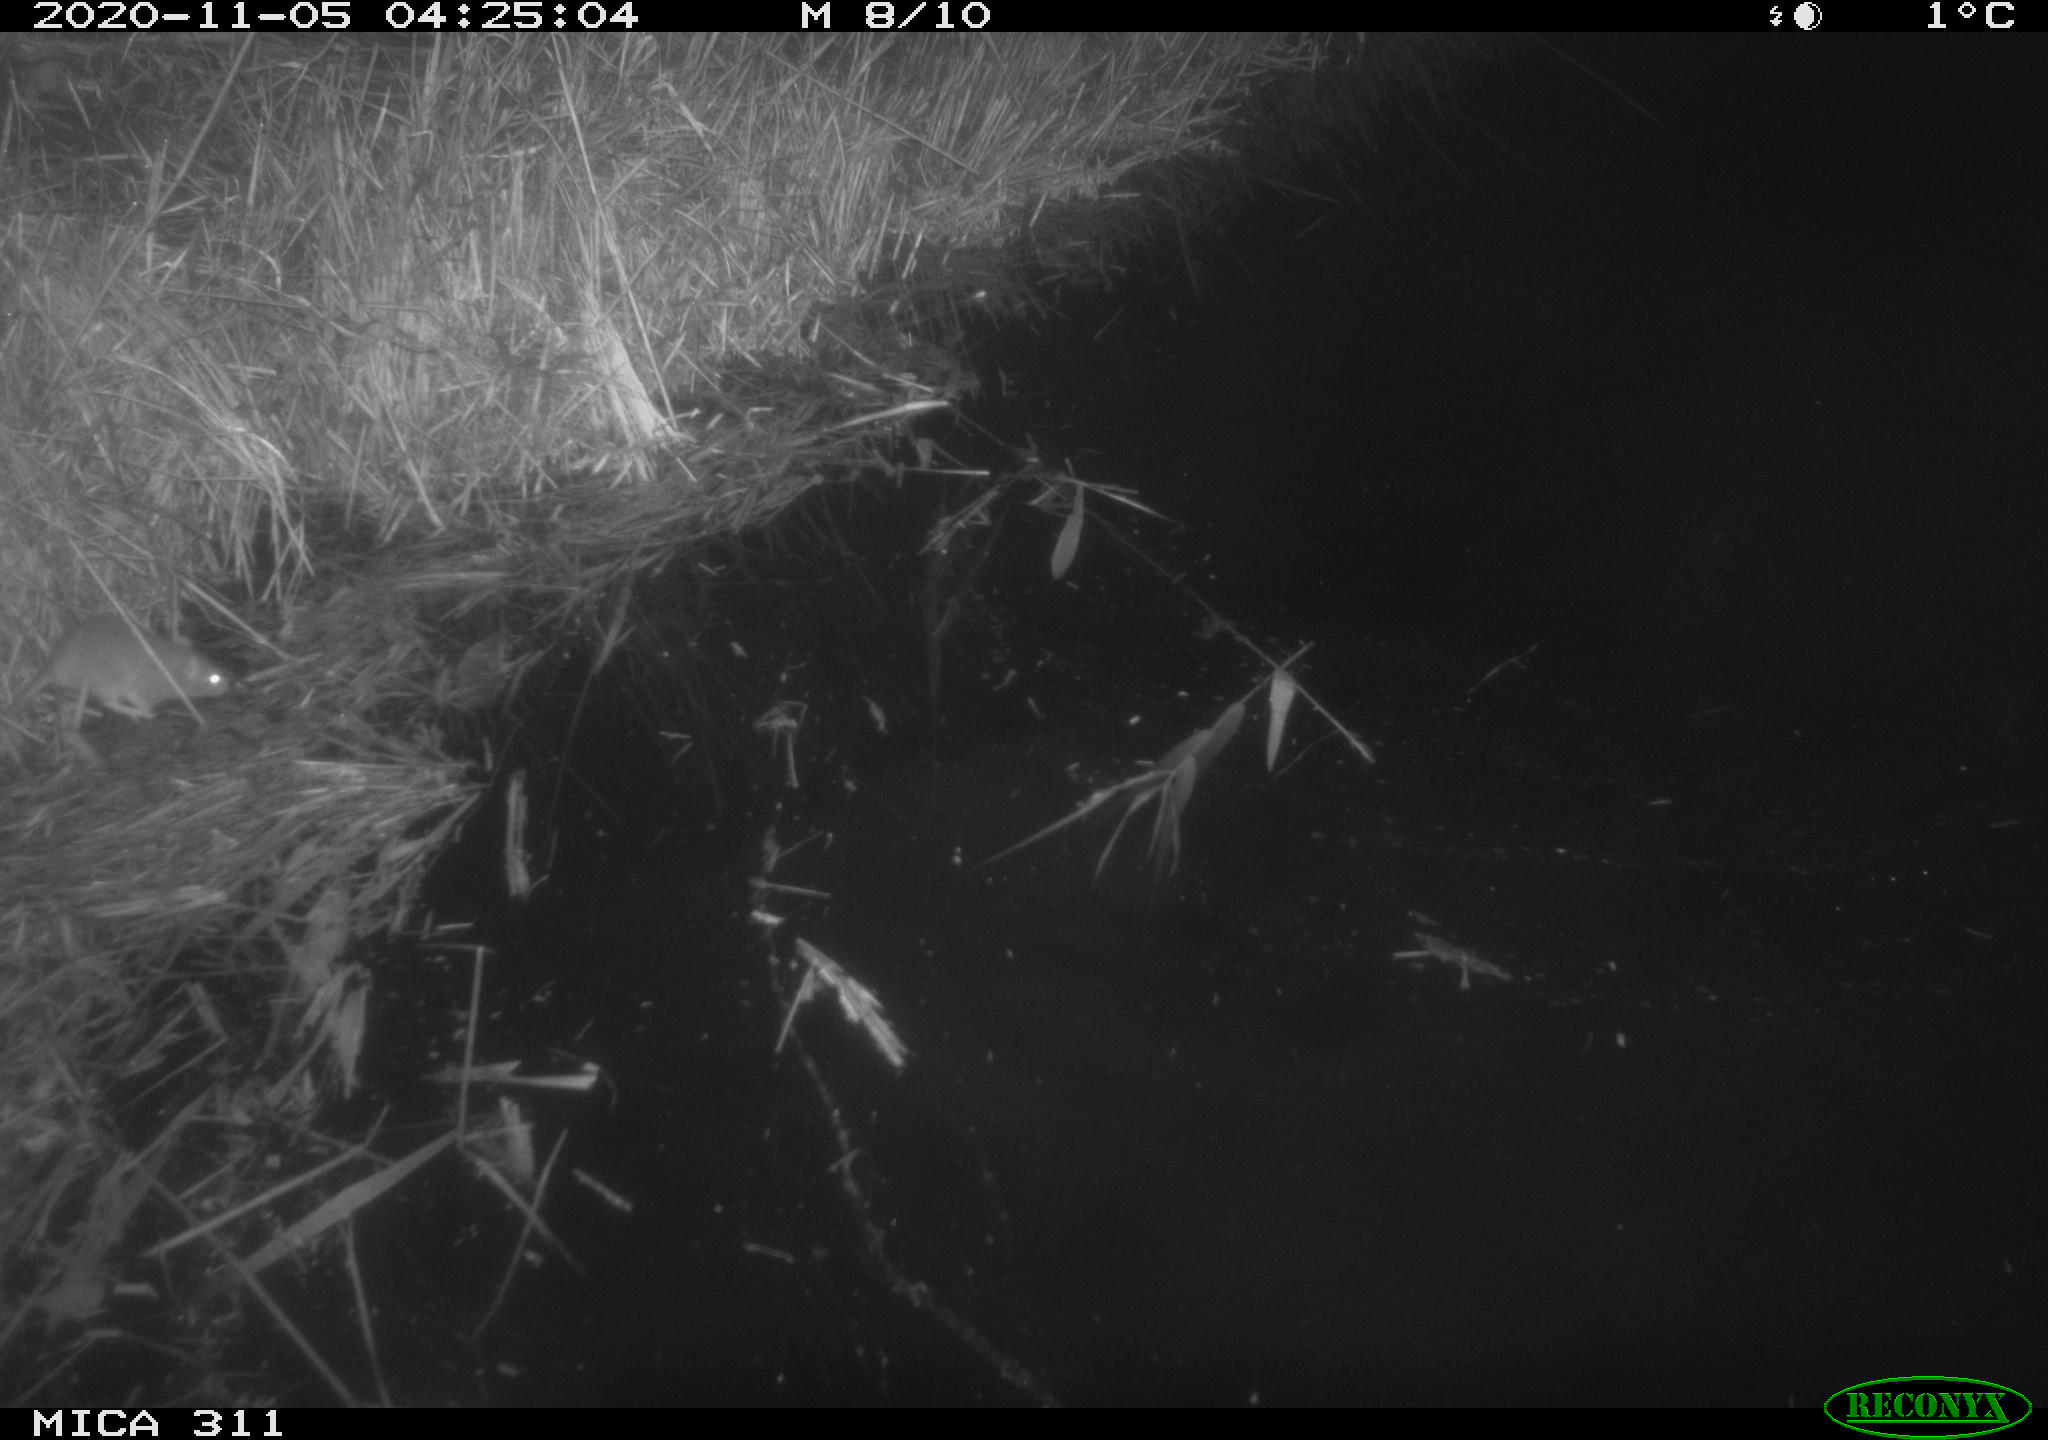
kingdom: Animalia
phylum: Chordata
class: Mammalia
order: Rodentia
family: Muridae
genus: Rattus
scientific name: Rattus norvegicus
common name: Brown rat
